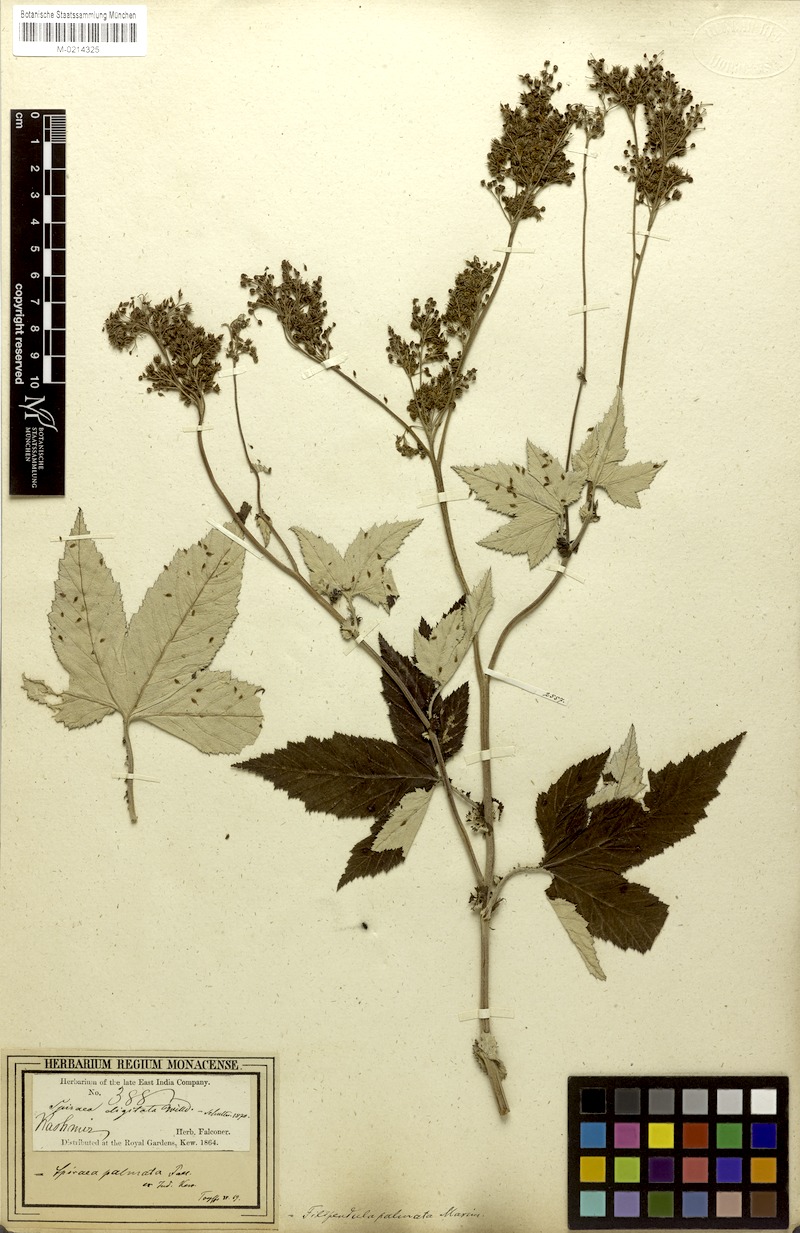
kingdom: Plantae
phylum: Tracheophyta
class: Magnoliopsida
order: Rosales
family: Rosaceae
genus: Filipendula
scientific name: Filipendula vestita
